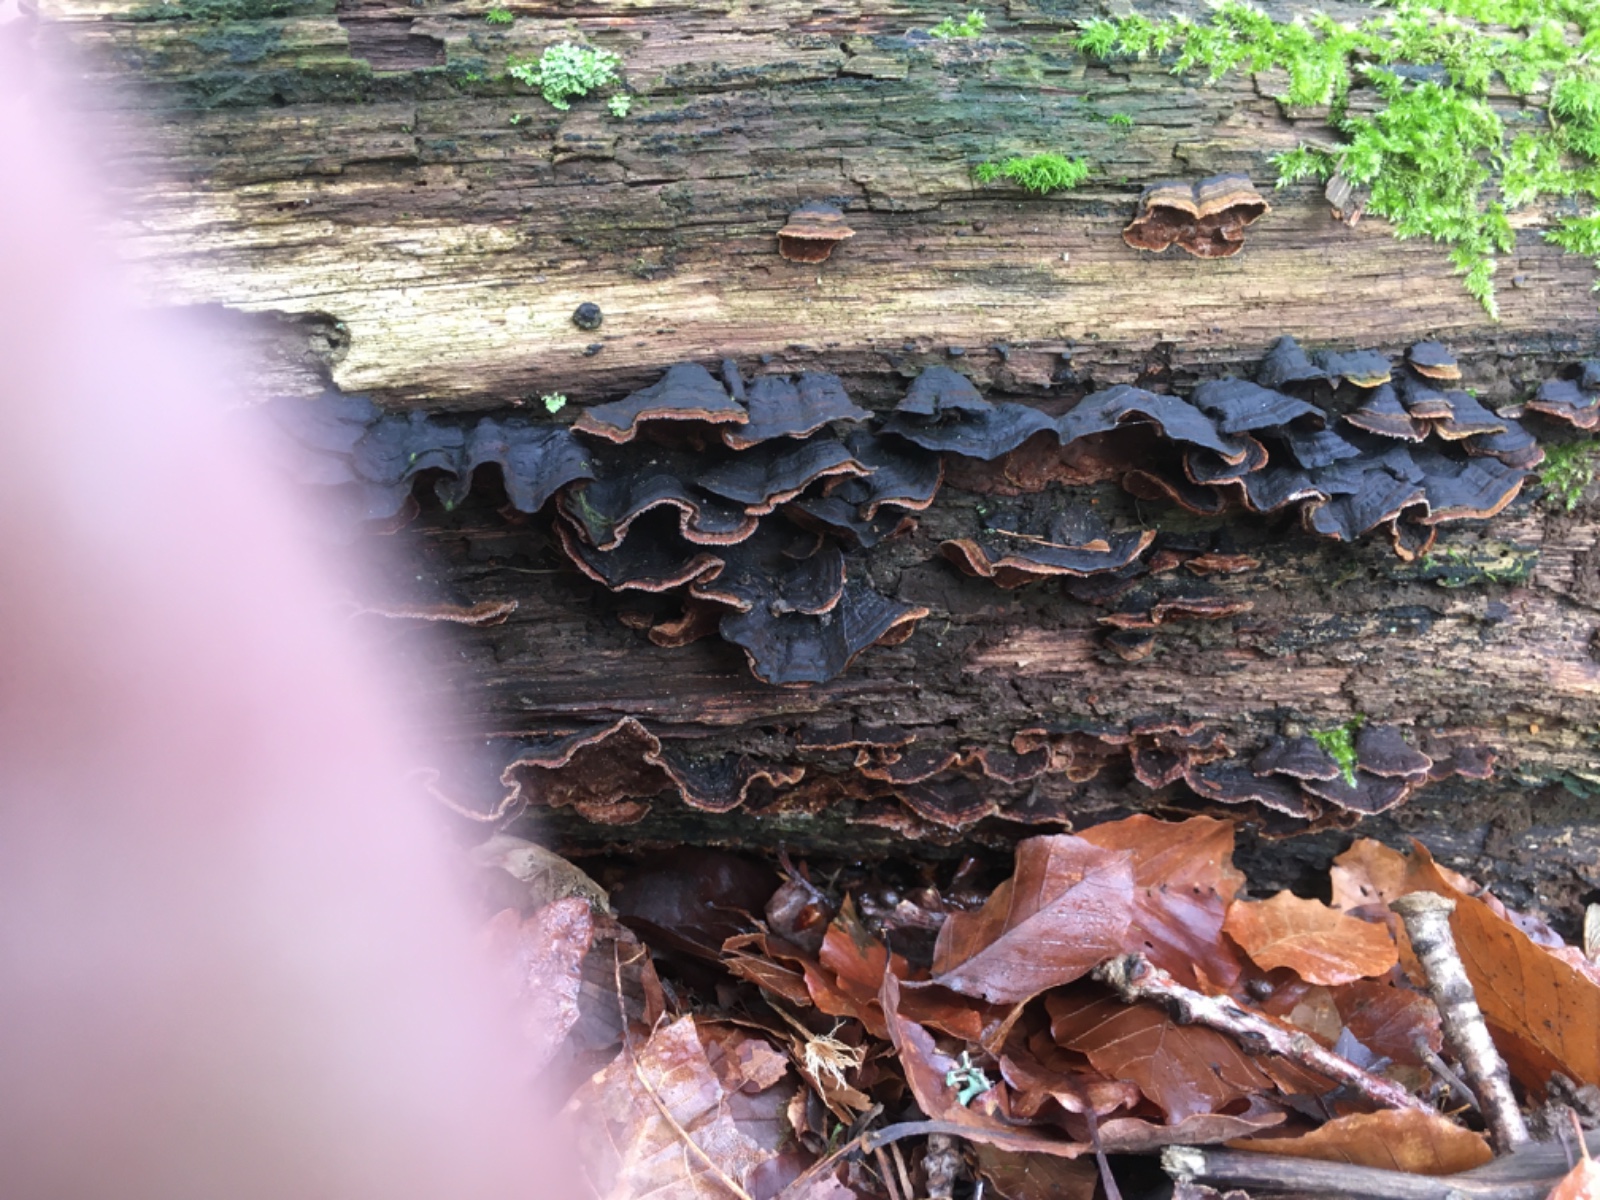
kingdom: Fungi
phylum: Basidiomycota
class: Agaricomycetes
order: Hymenochaetales
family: Hymenochaetaceae
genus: Hymenochaete
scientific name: Hymenochaete rubiginosa
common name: stiv ruslædersvamp
